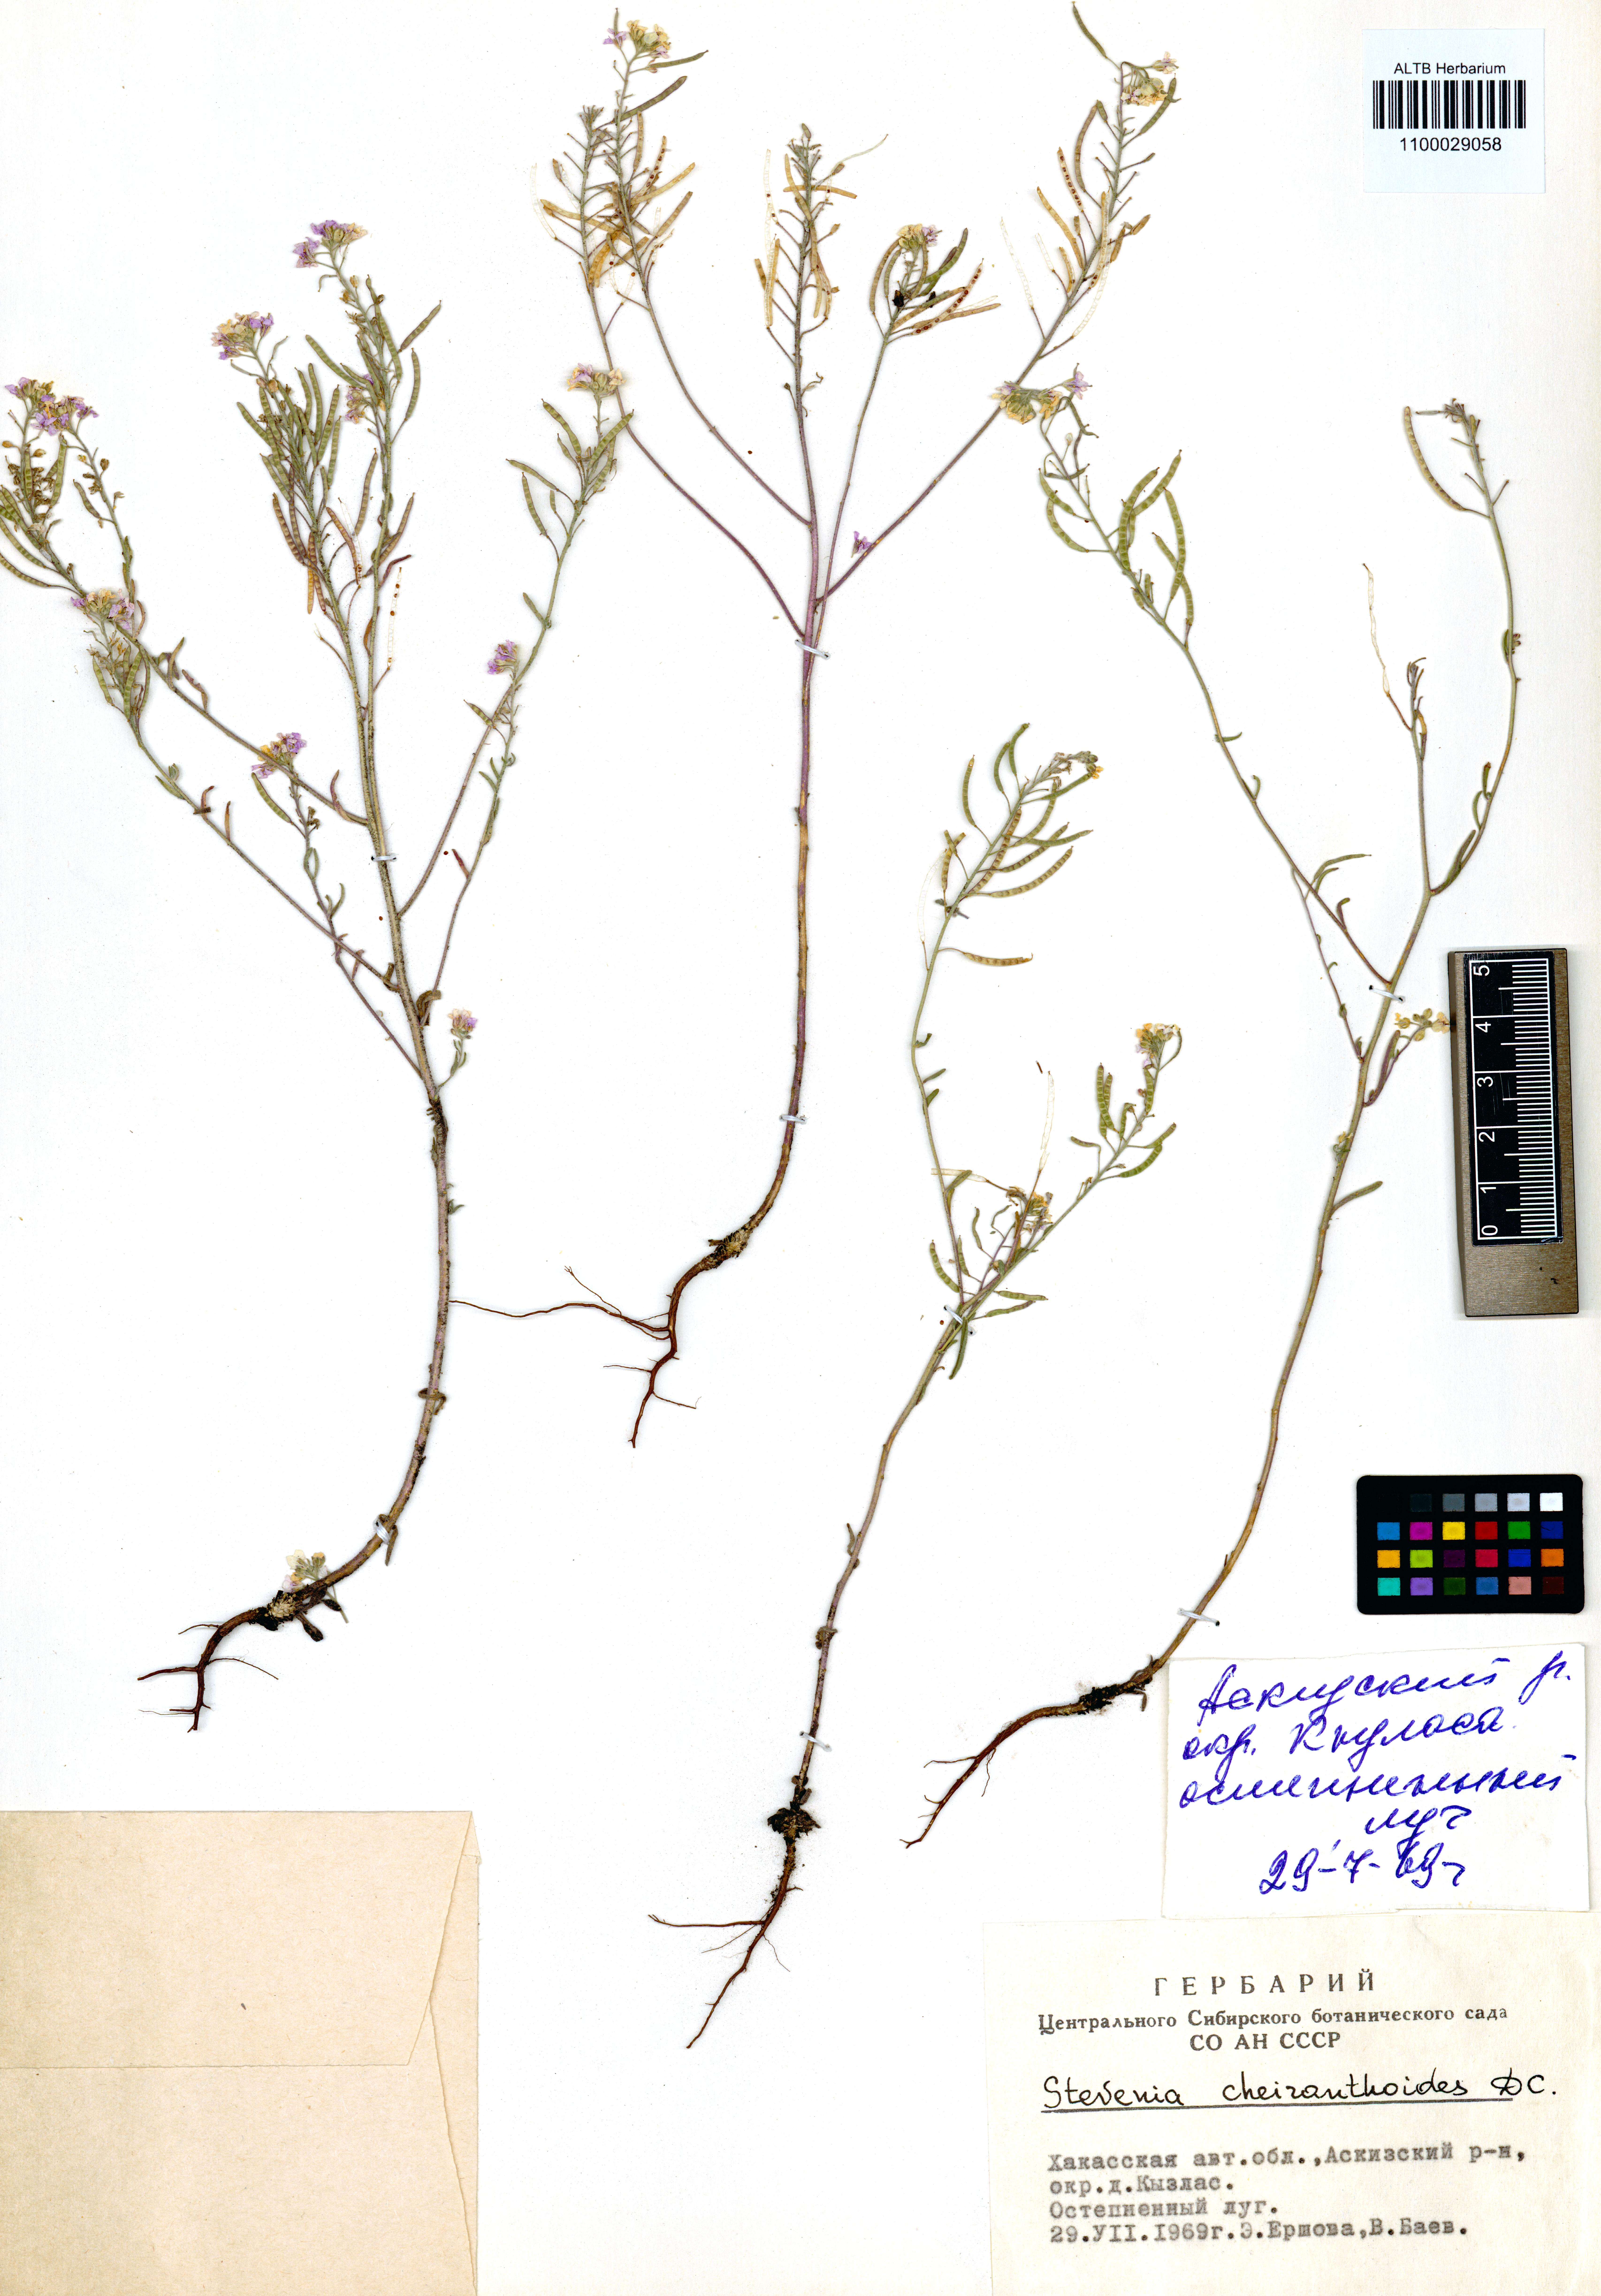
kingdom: Plantae
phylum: Tracheophyta
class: Magnoliopsida
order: Brassicales
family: Brassicaceae
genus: Stevenia
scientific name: Stevenia incarnata
